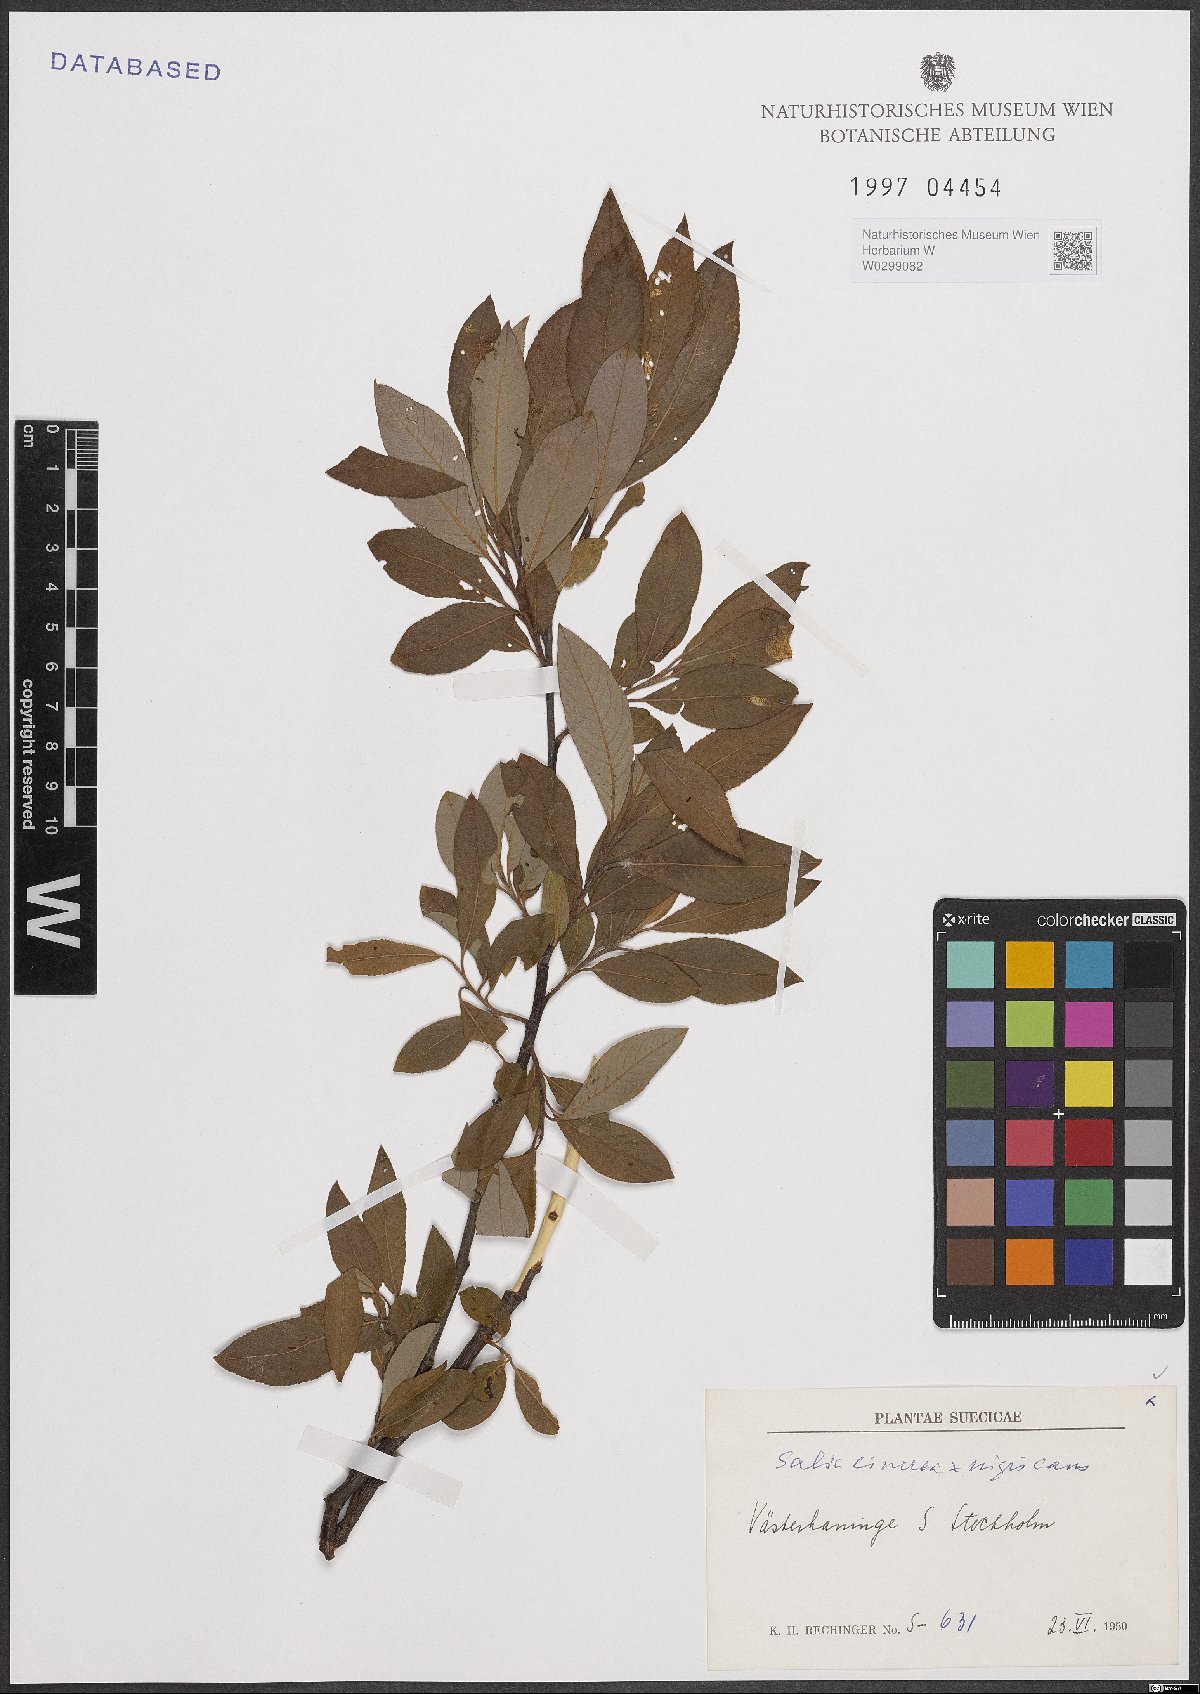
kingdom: Plantae
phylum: Tracheophyta
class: Magnoliopsida
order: Malpighiales
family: Salicaceae
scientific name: Salicaceae
